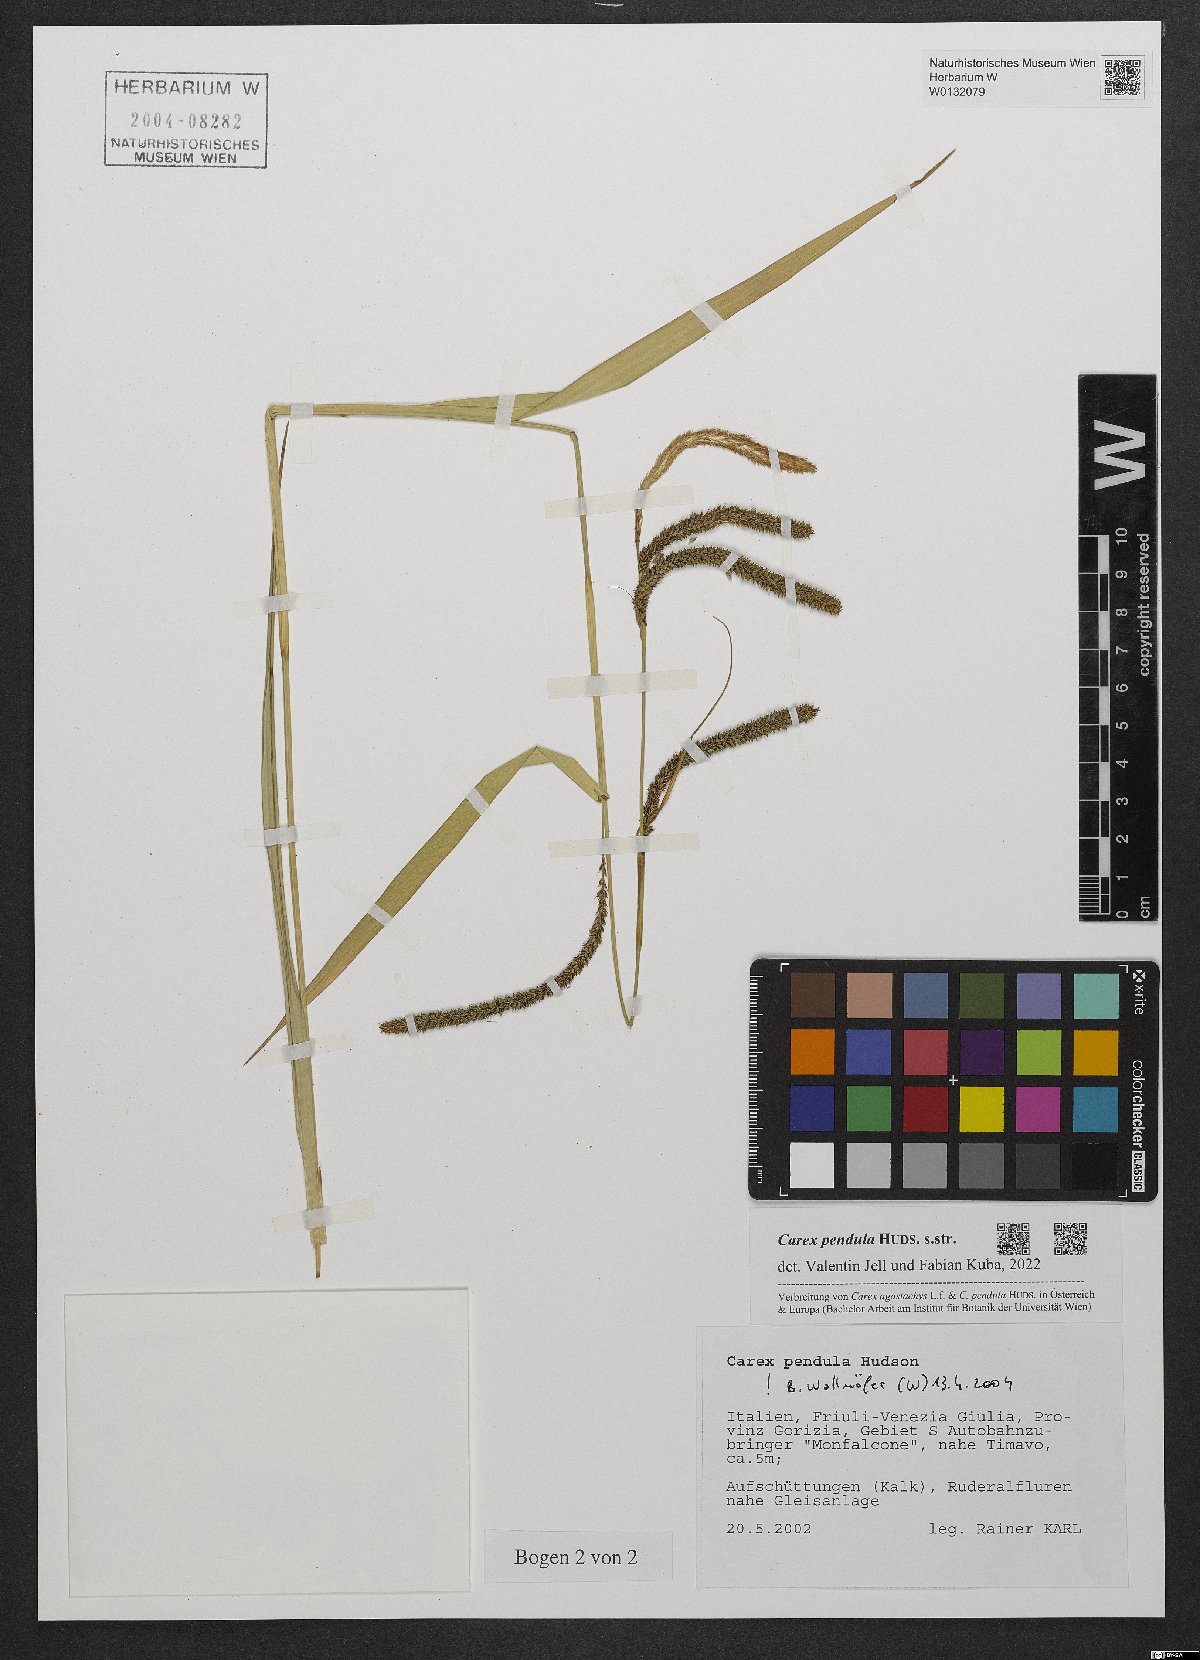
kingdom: Plantae
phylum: Tracheophyta
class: Liliopsida
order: Poales
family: Cyperaceae
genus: Carex
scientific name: Carex pendula
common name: Pendulous sedge
